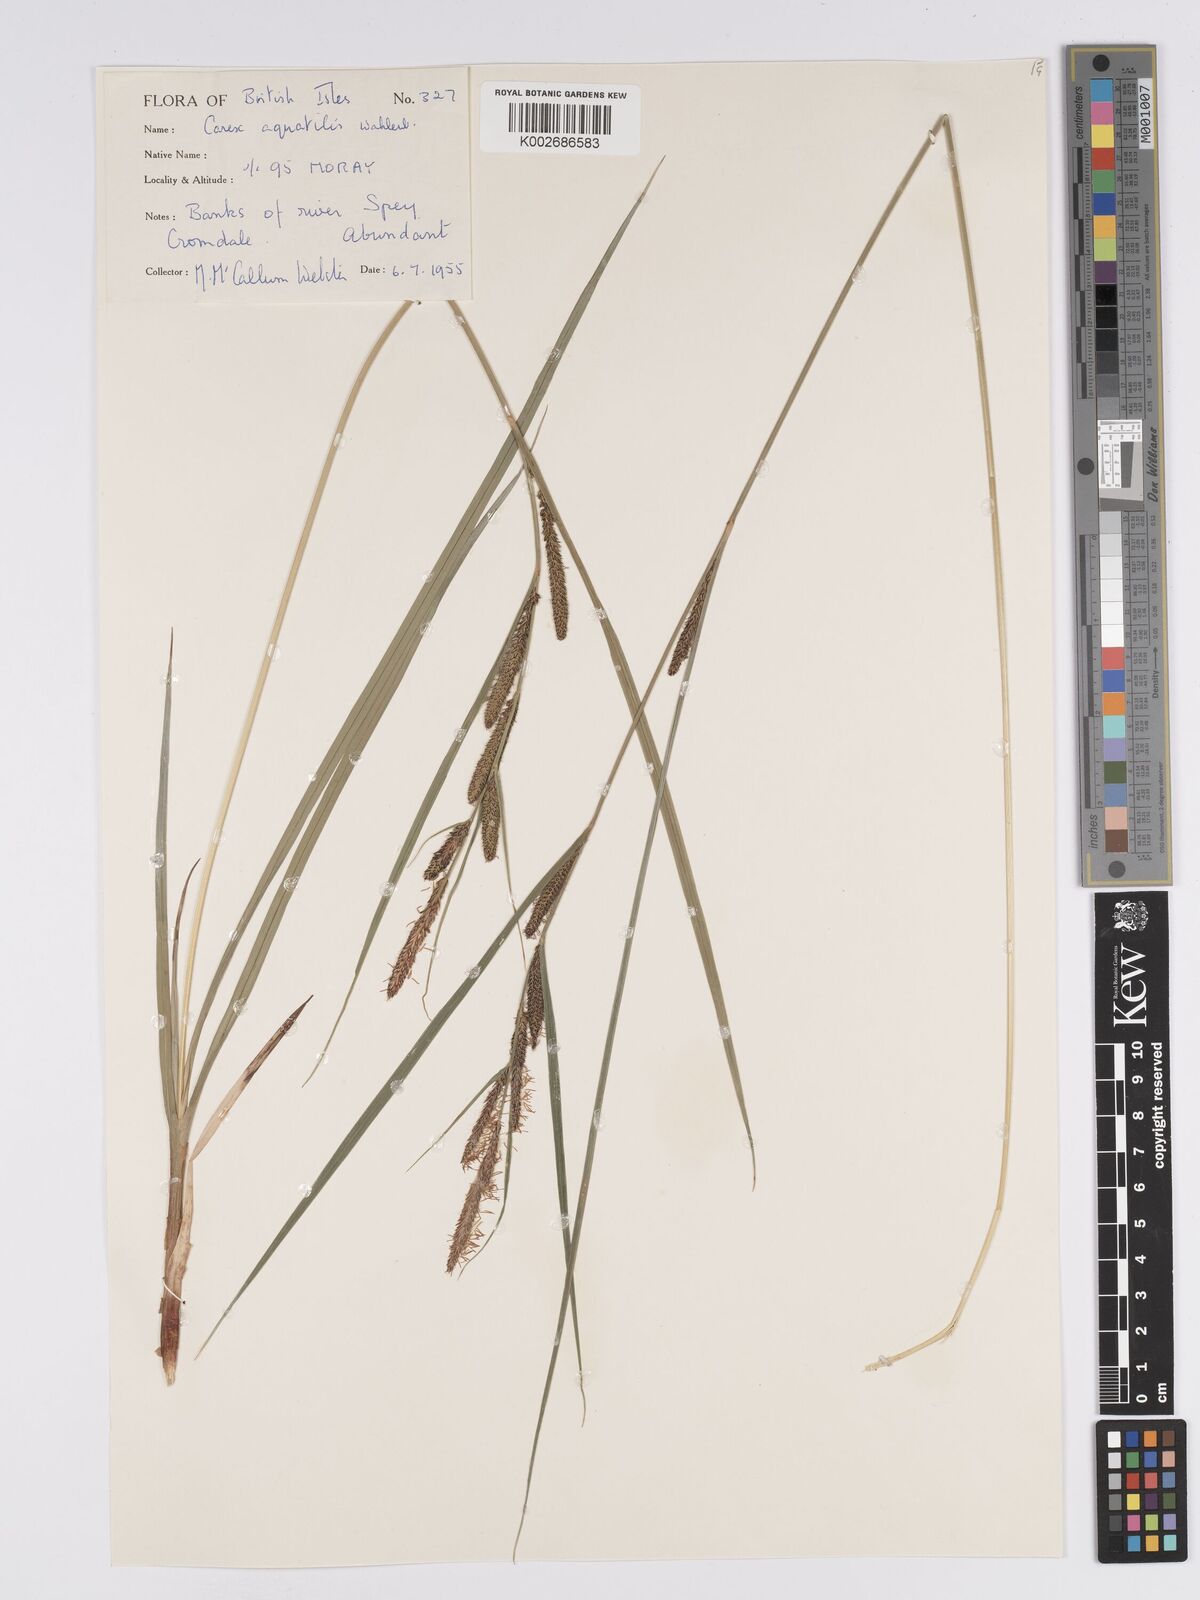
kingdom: Plantae
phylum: Tracheophyta
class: Liliopsida
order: Poales
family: Cyperaceae
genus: Carex
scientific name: Carex aquatilis
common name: Water sedge
